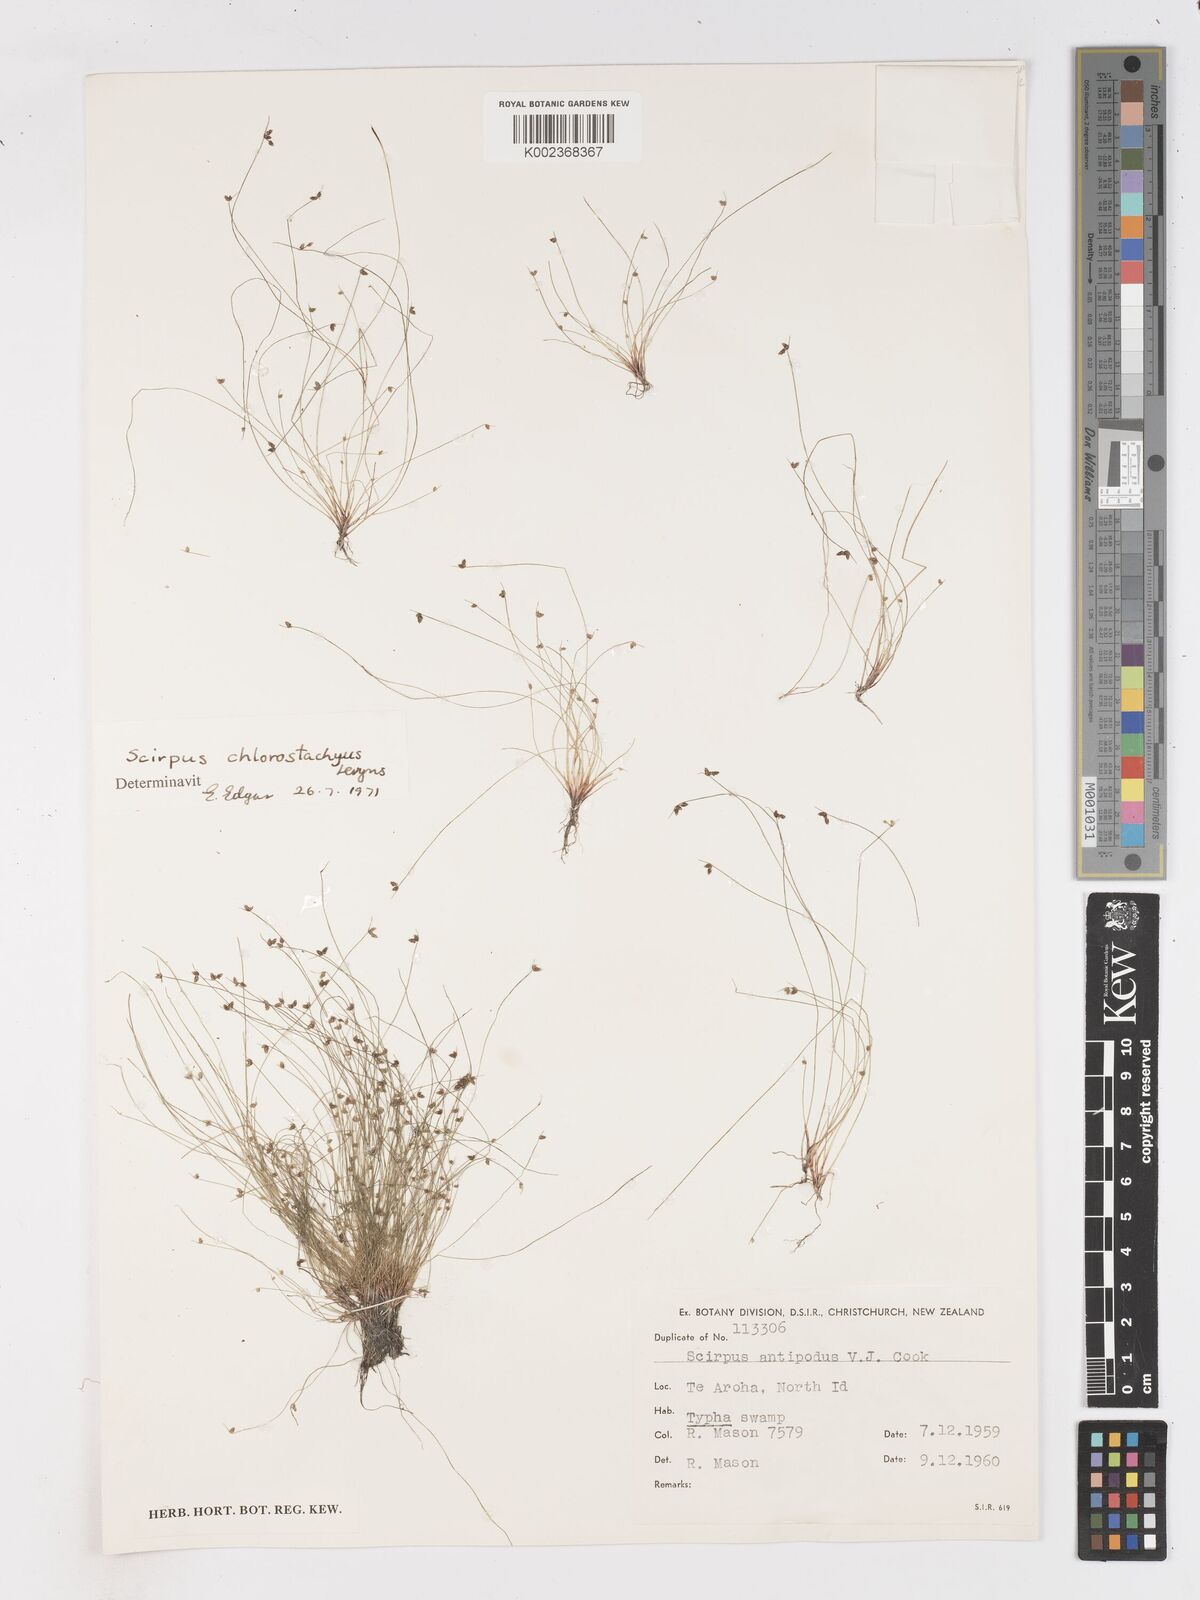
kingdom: Plantae
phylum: Tracheophyta
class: Liliopsida
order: Poales
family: Cyperaceae
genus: Isolepis
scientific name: Isolepis sepulcralis
